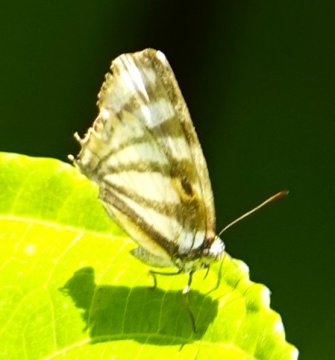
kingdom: Animalia
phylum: Arthropoda
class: Insecta
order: Lepidoptera
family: Lycaenidae
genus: Arawacus
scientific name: Arawacus togarna
